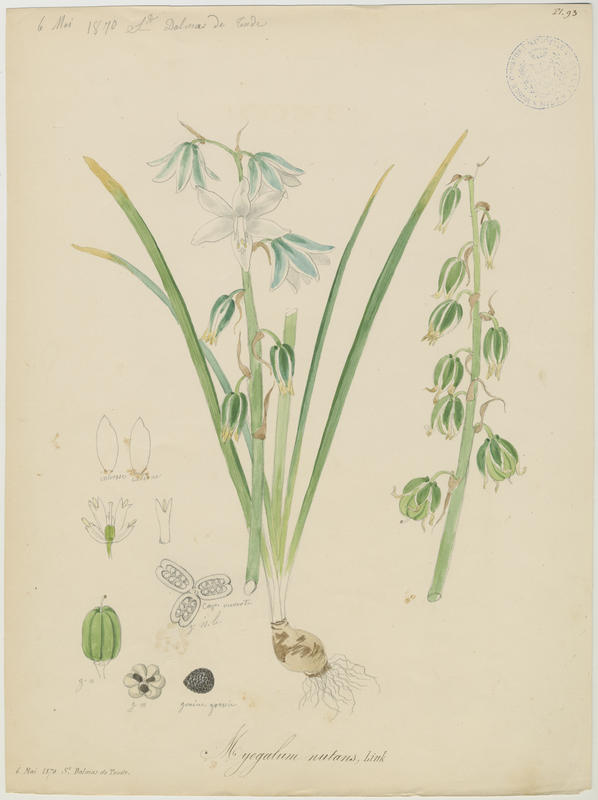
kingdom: Plantae
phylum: Tracheophyta
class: Liliopsida
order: Asparagales
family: Asparagaceae
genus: Ornithogalum
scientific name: Ornithogalum nutans
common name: Drooping star-of-bethlehem
